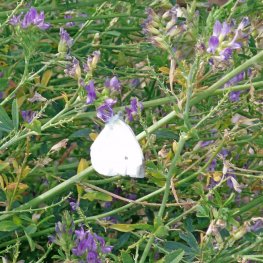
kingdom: Animalia
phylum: Arthropoda
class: Insecta
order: Lepidoptera
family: Pieridae
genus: Pieris
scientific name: Pieris rapae
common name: Cabbage White
